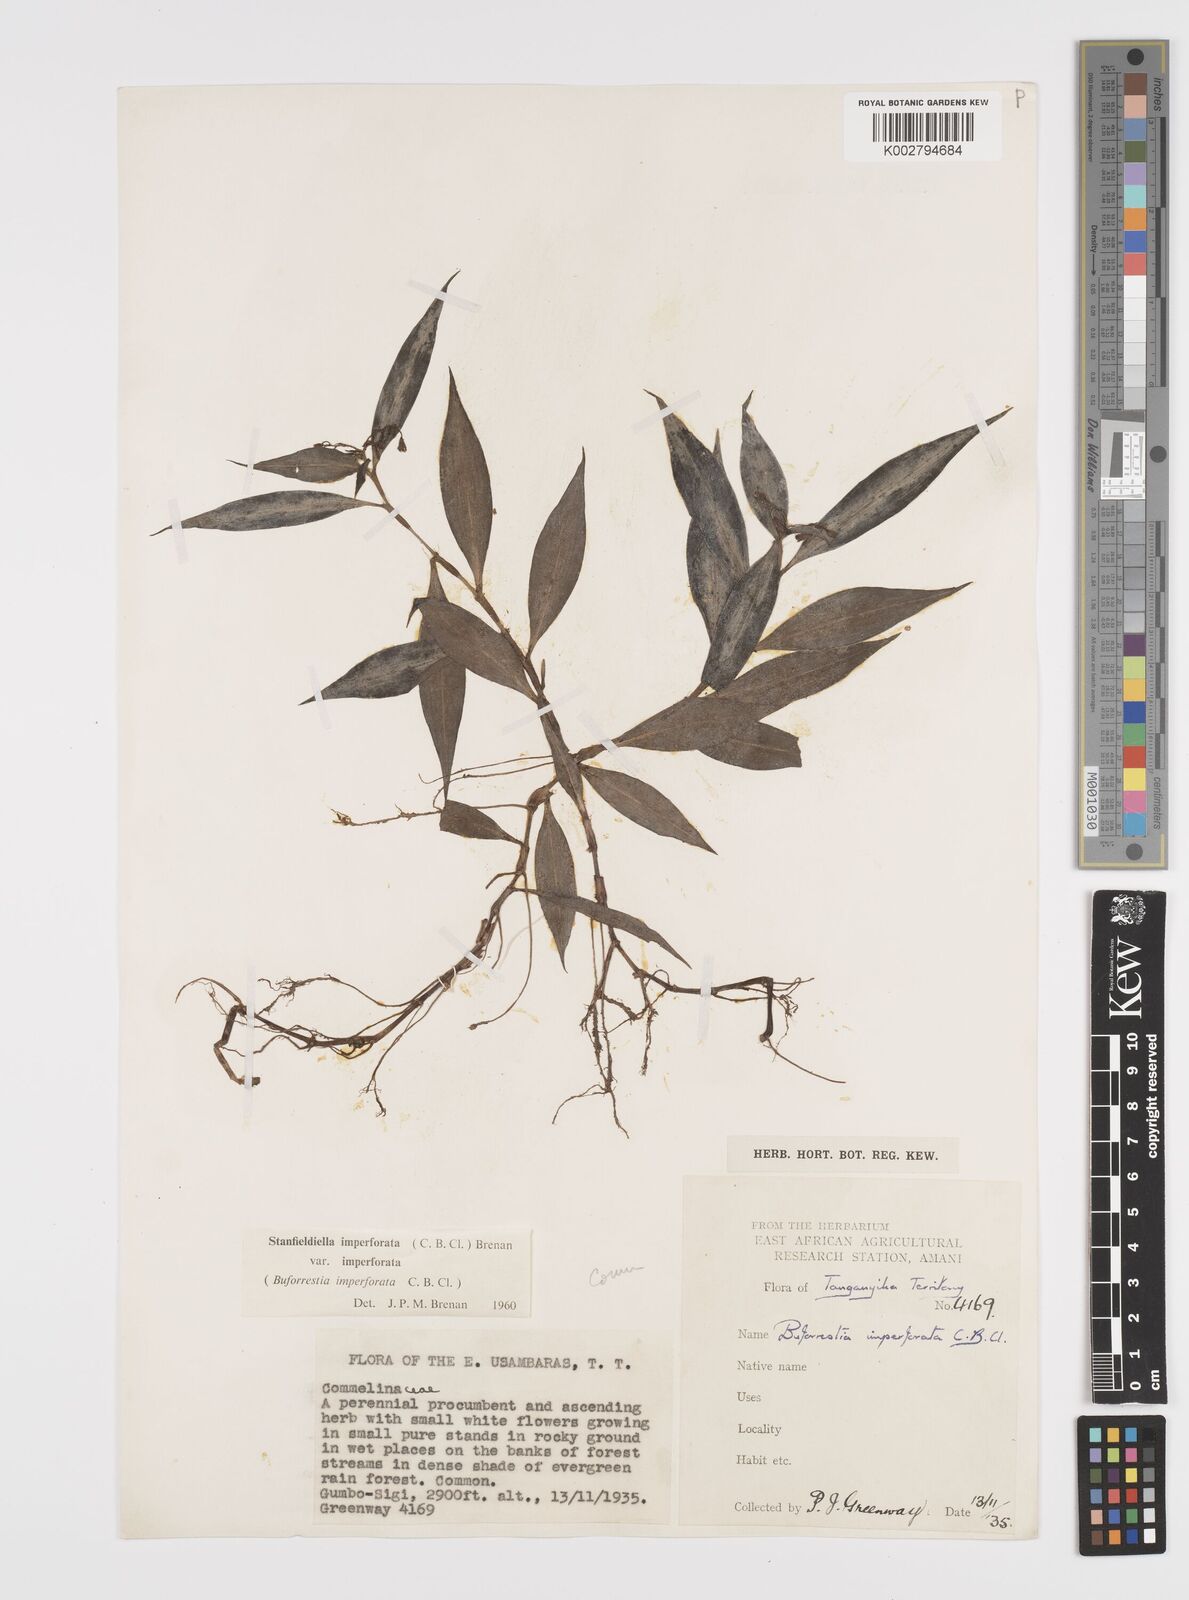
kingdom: Plantae
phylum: Tracheophyta
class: Liliopsida
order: Commelinales
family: Commelinaceae
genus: Stanfieldiella
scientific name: Stanfieldiella imperforata
